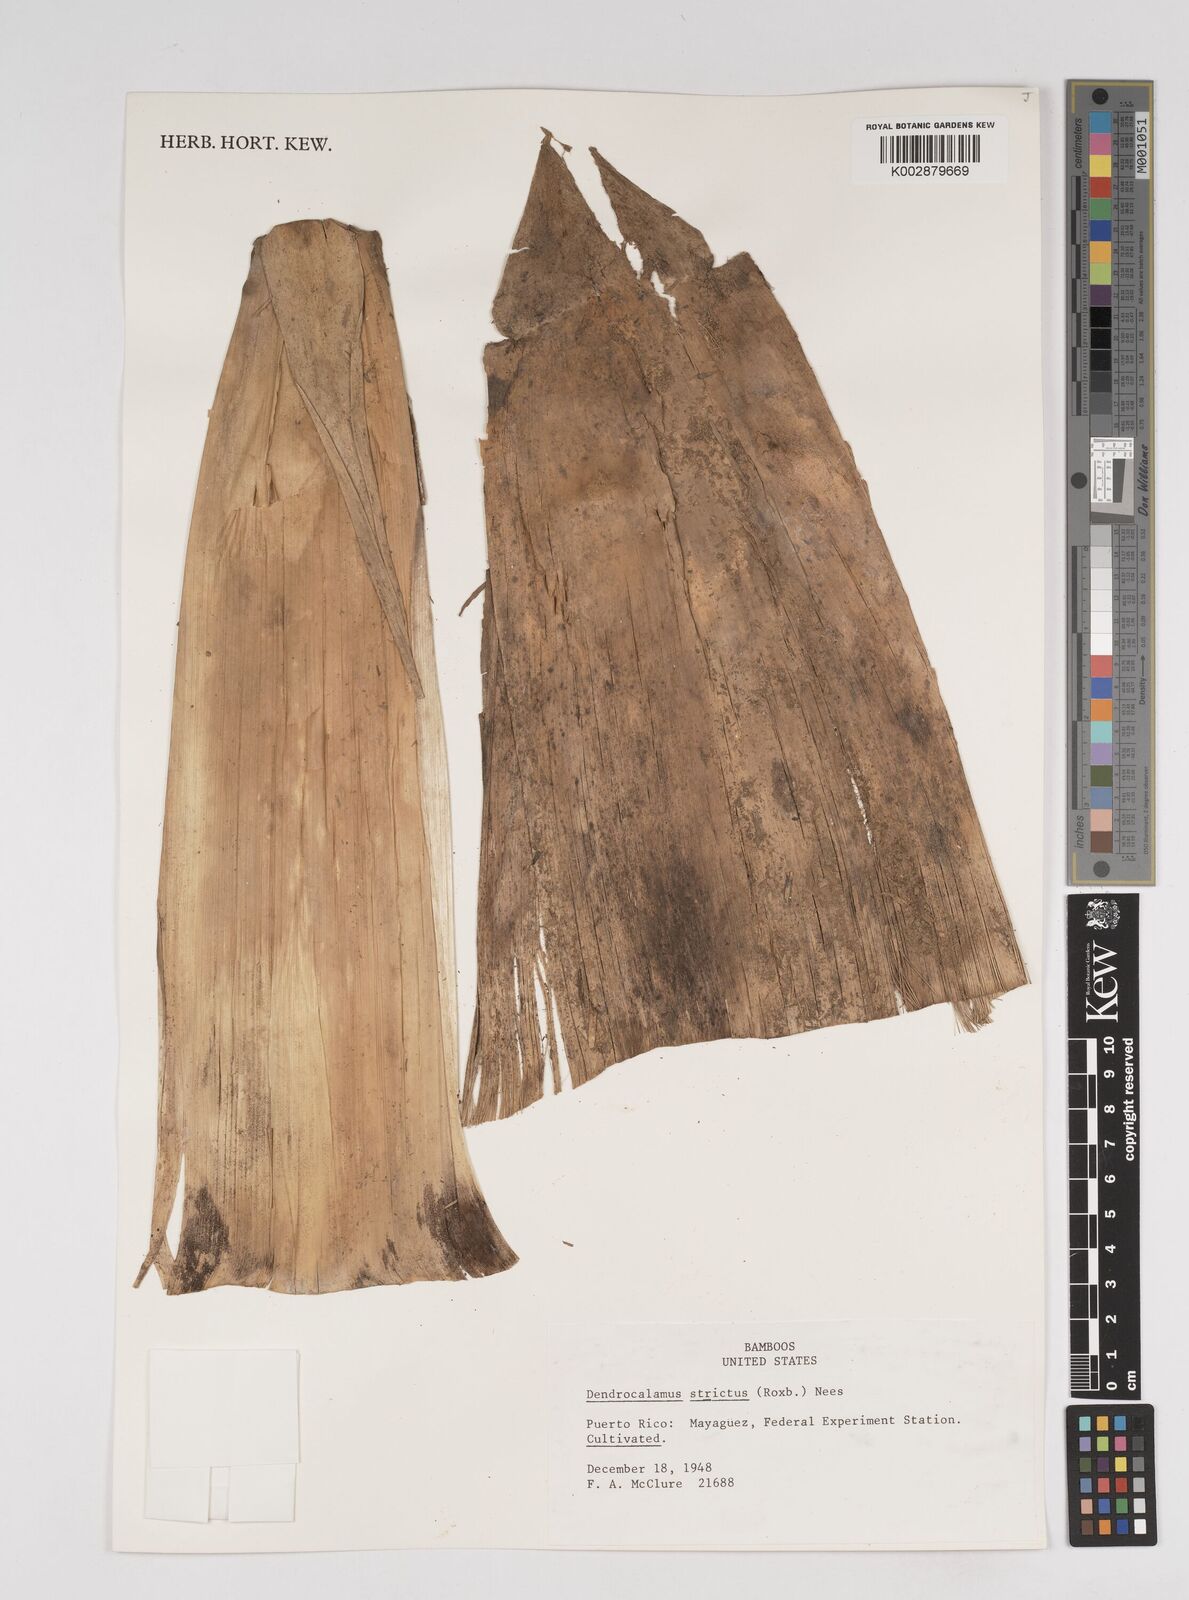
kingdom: Plantae
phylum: Tracheophyta
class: Liliopsida
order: Poales
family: Poaceae
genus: Dendrocalamus
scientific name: Dendrocalamus strictus
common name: Male bamboo
